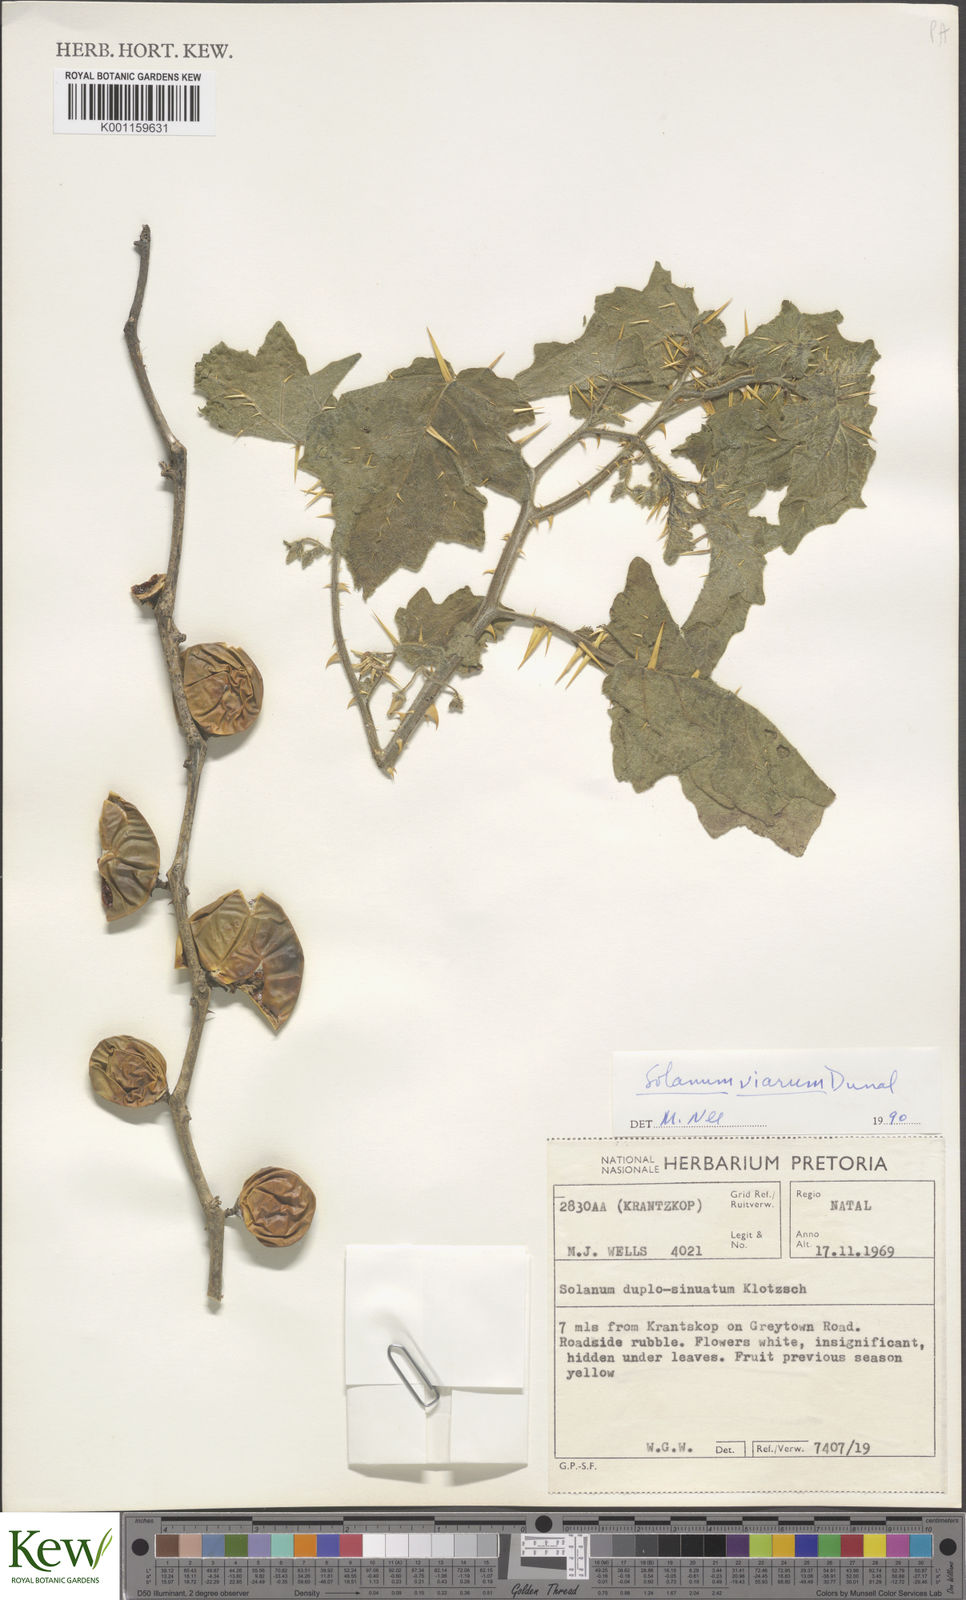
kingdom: Plantae
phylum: Tracheophyta
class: Magnoliopsida
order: Solanales
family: Solanaceae
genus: Solanum
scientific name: Solanum viarum
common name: Tropical soda apple
